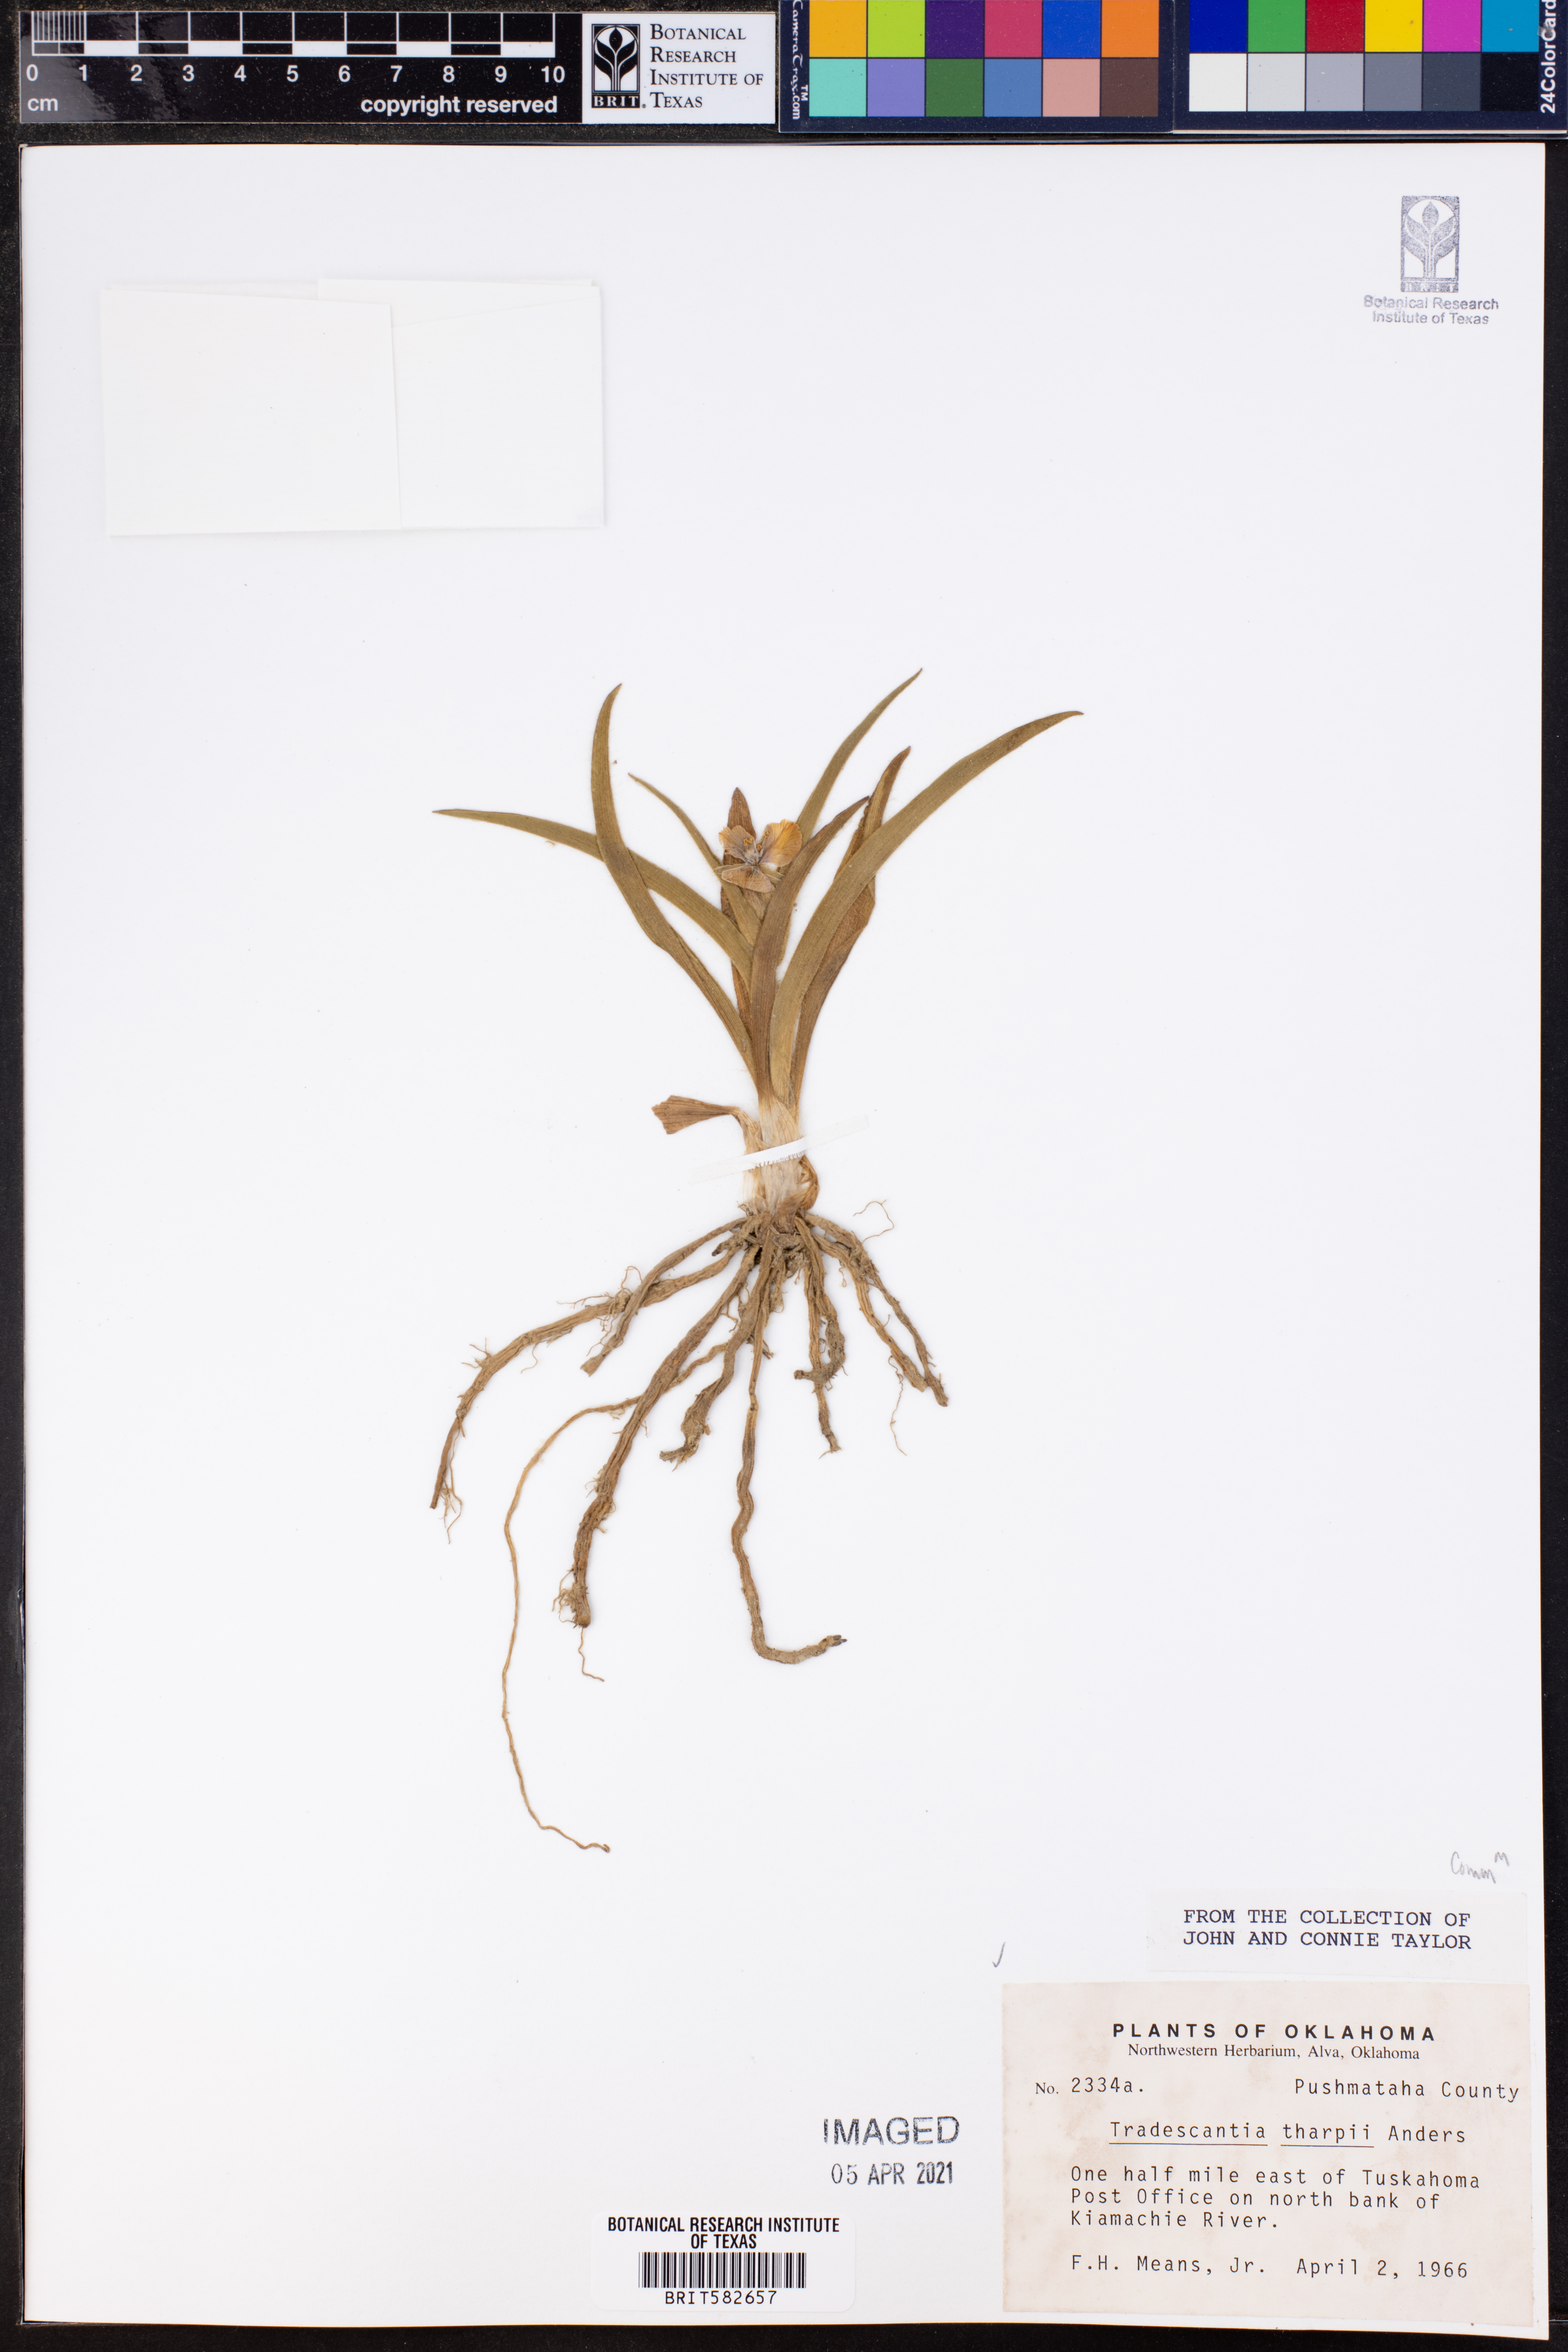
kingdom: Plantae
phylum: Tracheophyta
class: Liliopsida
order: Commelinales
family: Commelinaceae
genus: Tradescantia
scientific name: Tradescantia tharpii
